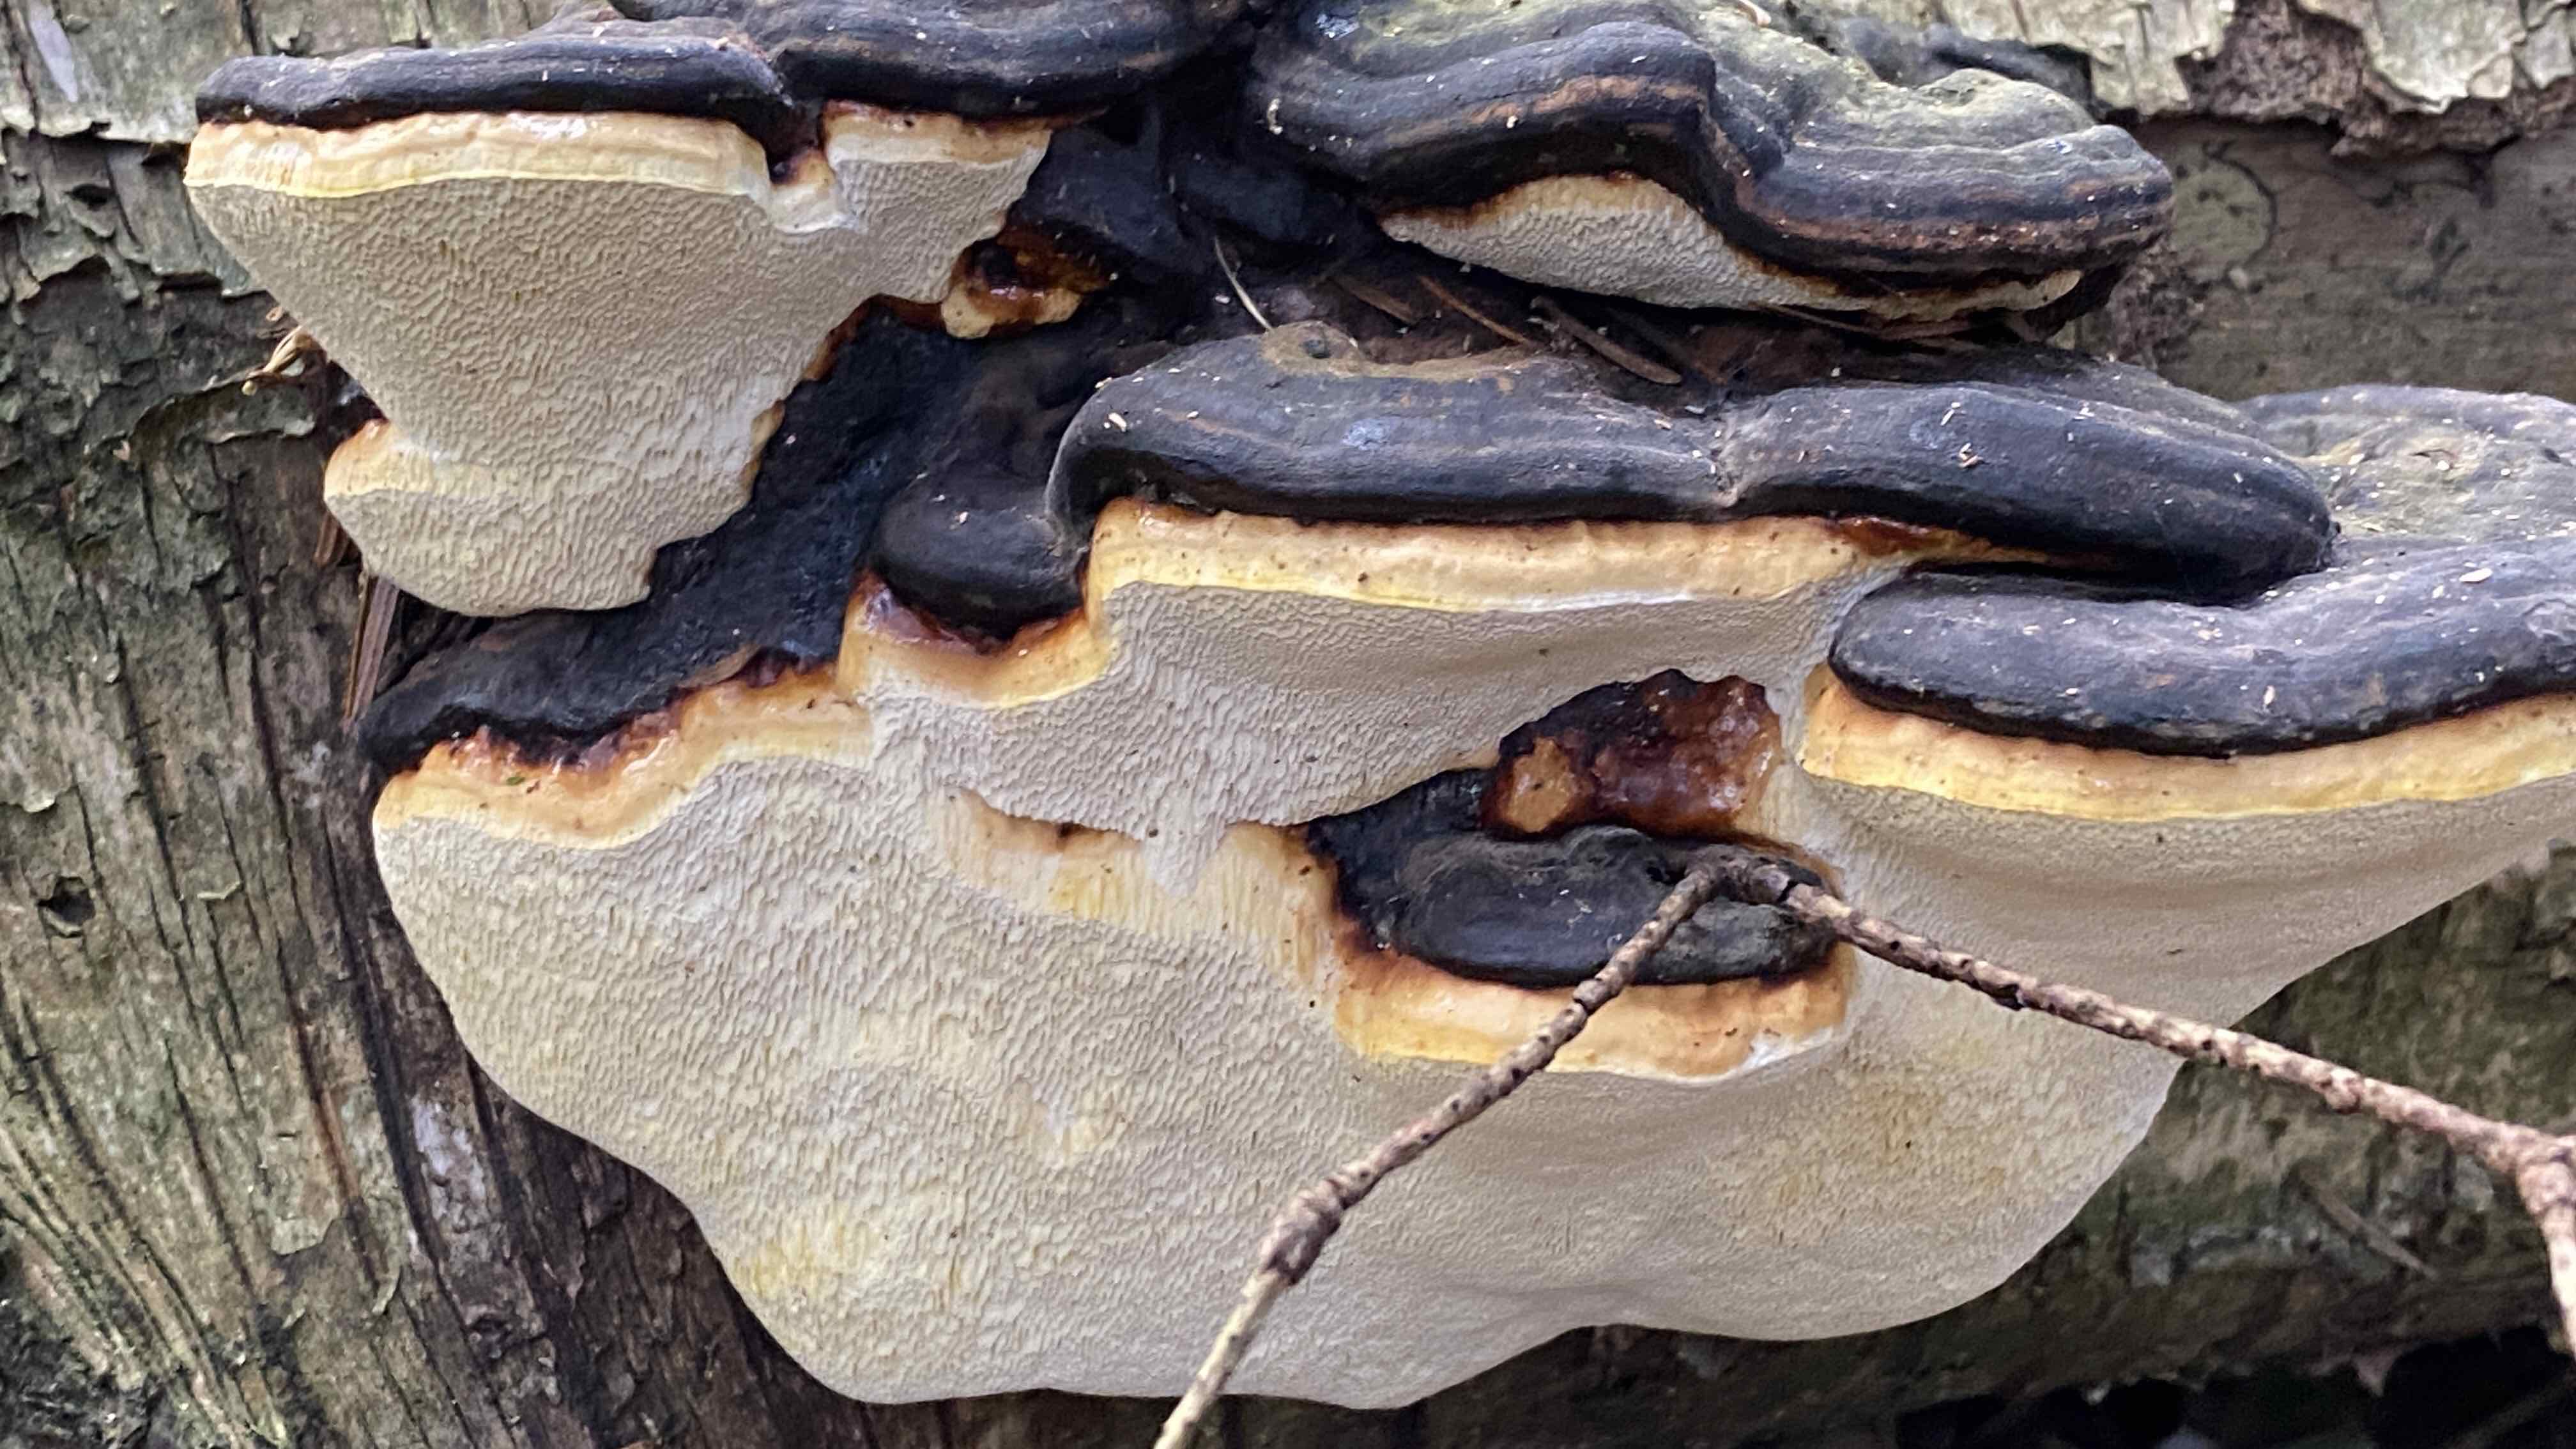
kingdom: Fungi
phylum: Basidiomycota
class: Agaricomycetes
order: Polyporales
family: Fomitopsidaceae
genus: Fomitopsis
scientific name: Fomitopsis pinicola
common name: randbæltet hovporesvamp
